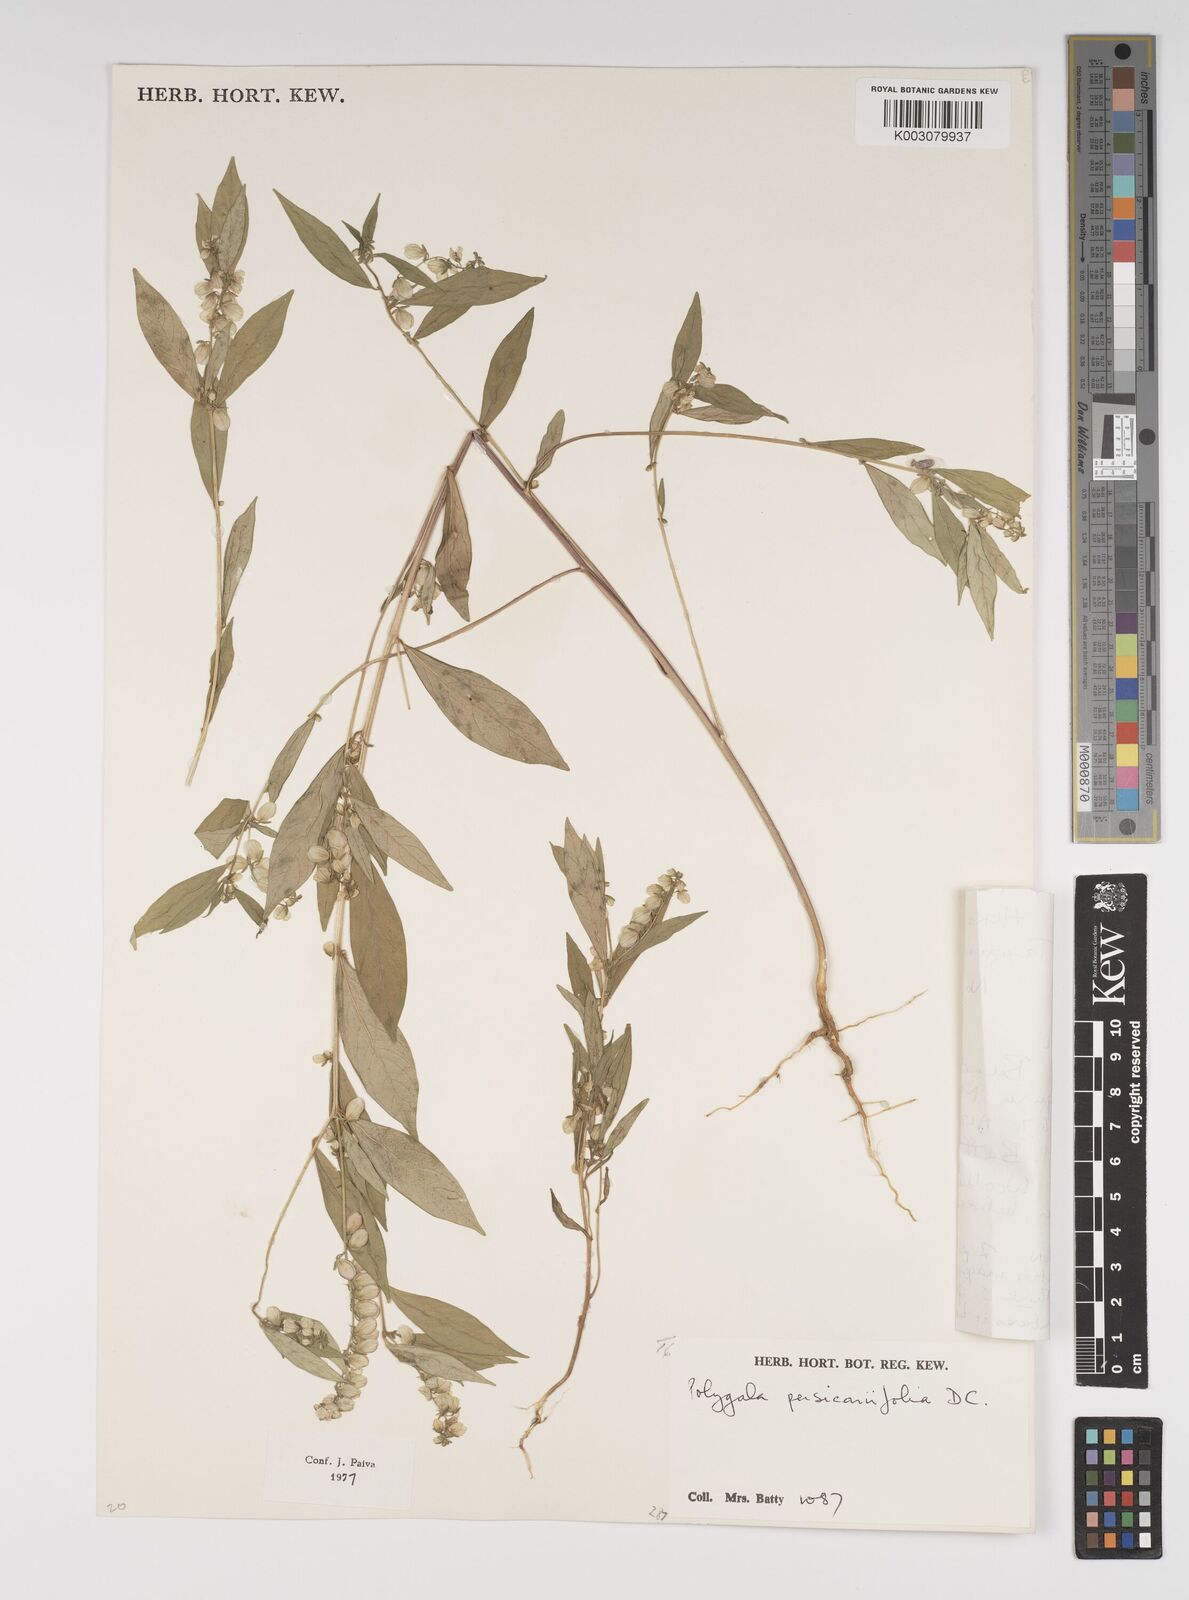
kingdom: Plantae
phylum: Tracheophyta
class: Magnoliopsida
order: Fabales
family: Polygalaceae
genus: Polygala
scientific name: Polygala persicariifolia
